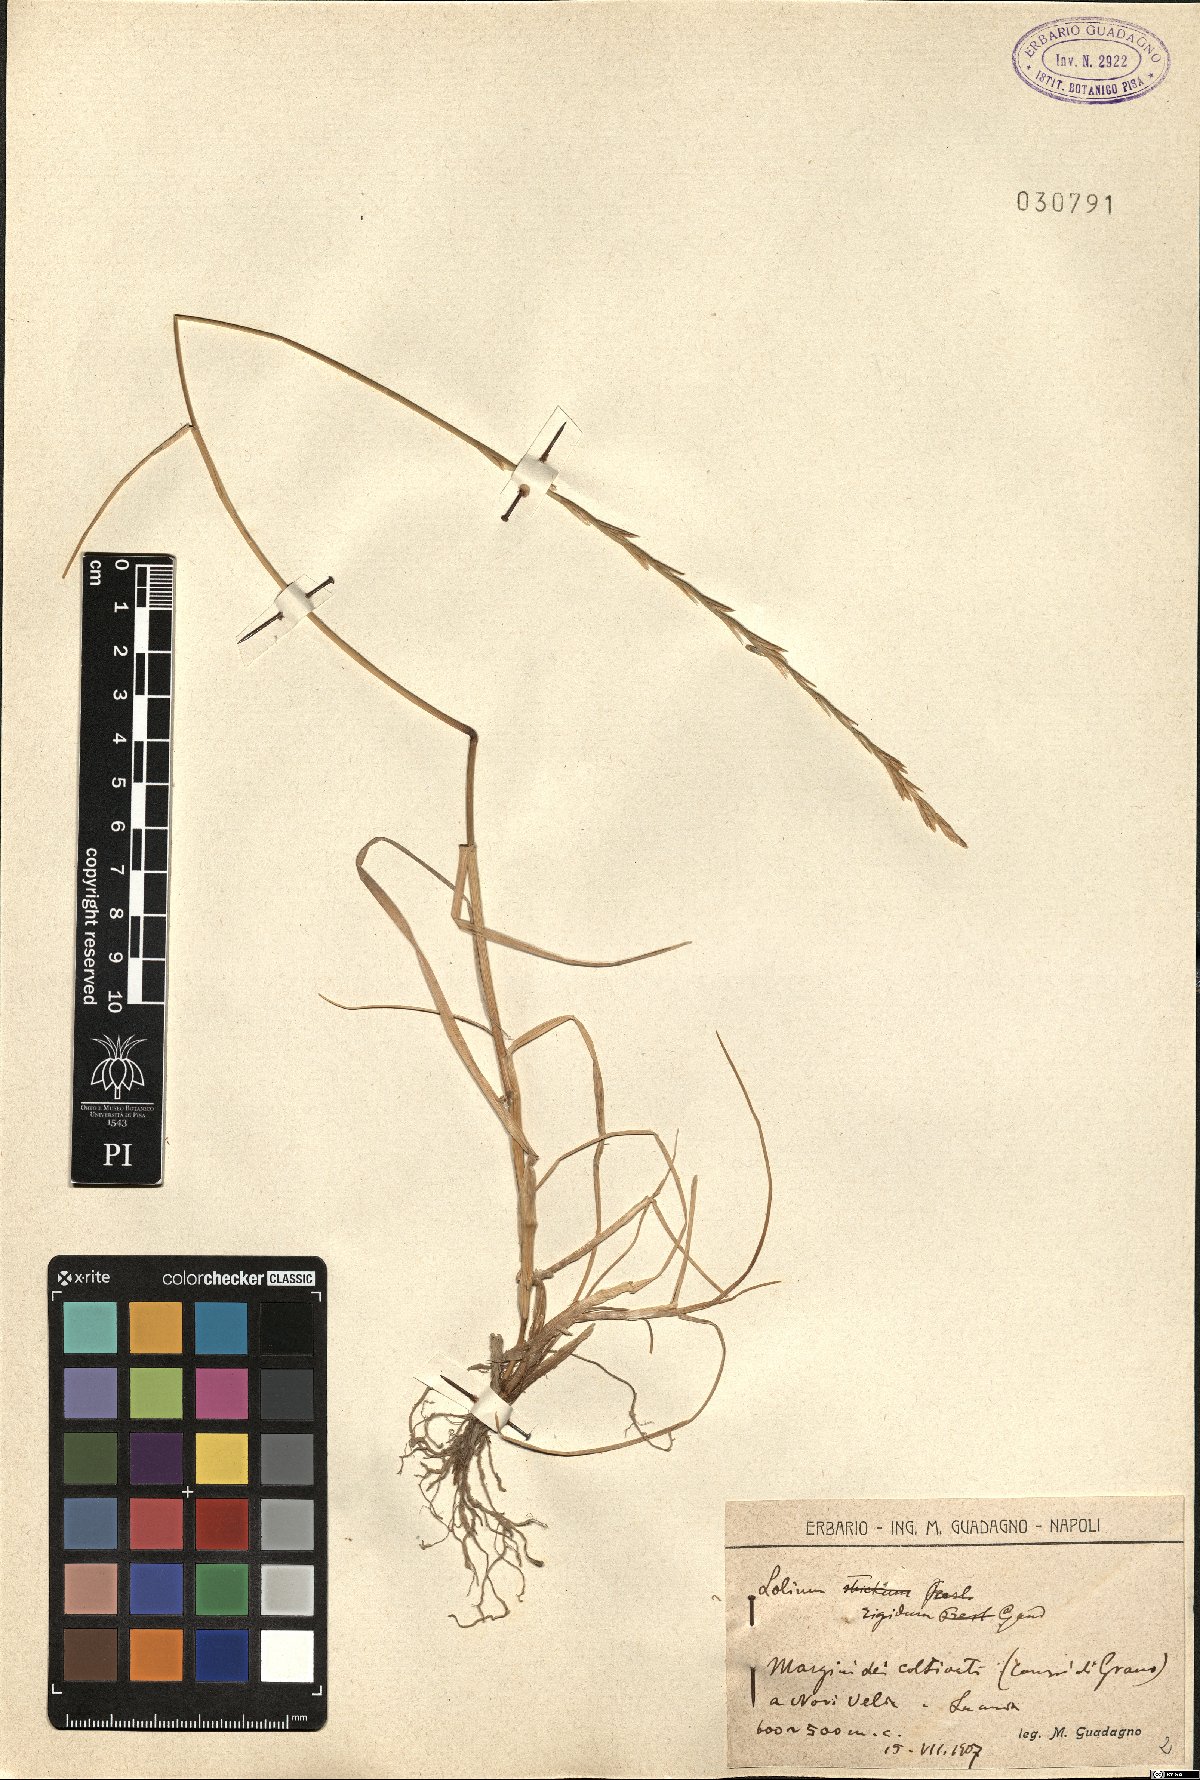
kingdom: Plantae
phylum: Tracheophyta
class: Liliopsida
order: Poales
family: Poaceae
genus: Lolium
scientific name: Lolium rigidum
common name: Wimmera ryegrass
